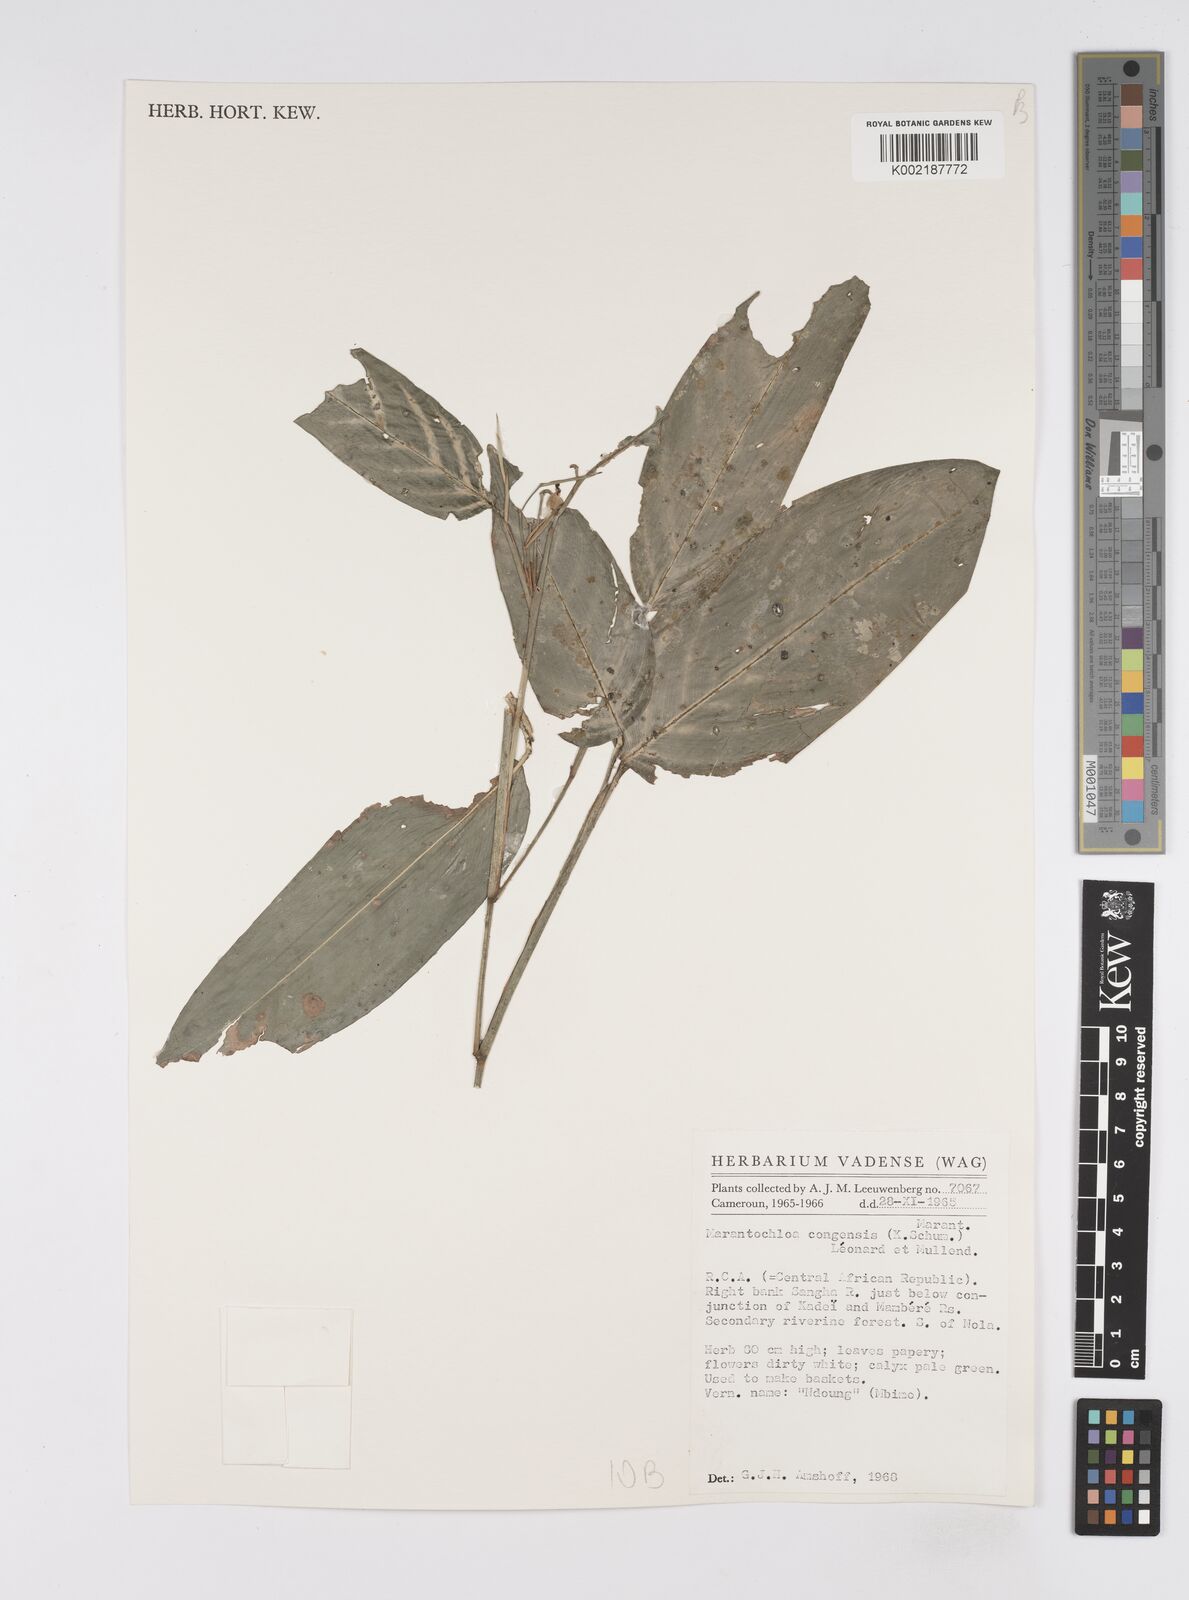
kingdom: Plantae
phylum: Tracheophyta
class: Liliopsida
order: Zingiberales
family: Marantaceae
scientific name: Marantaceae
